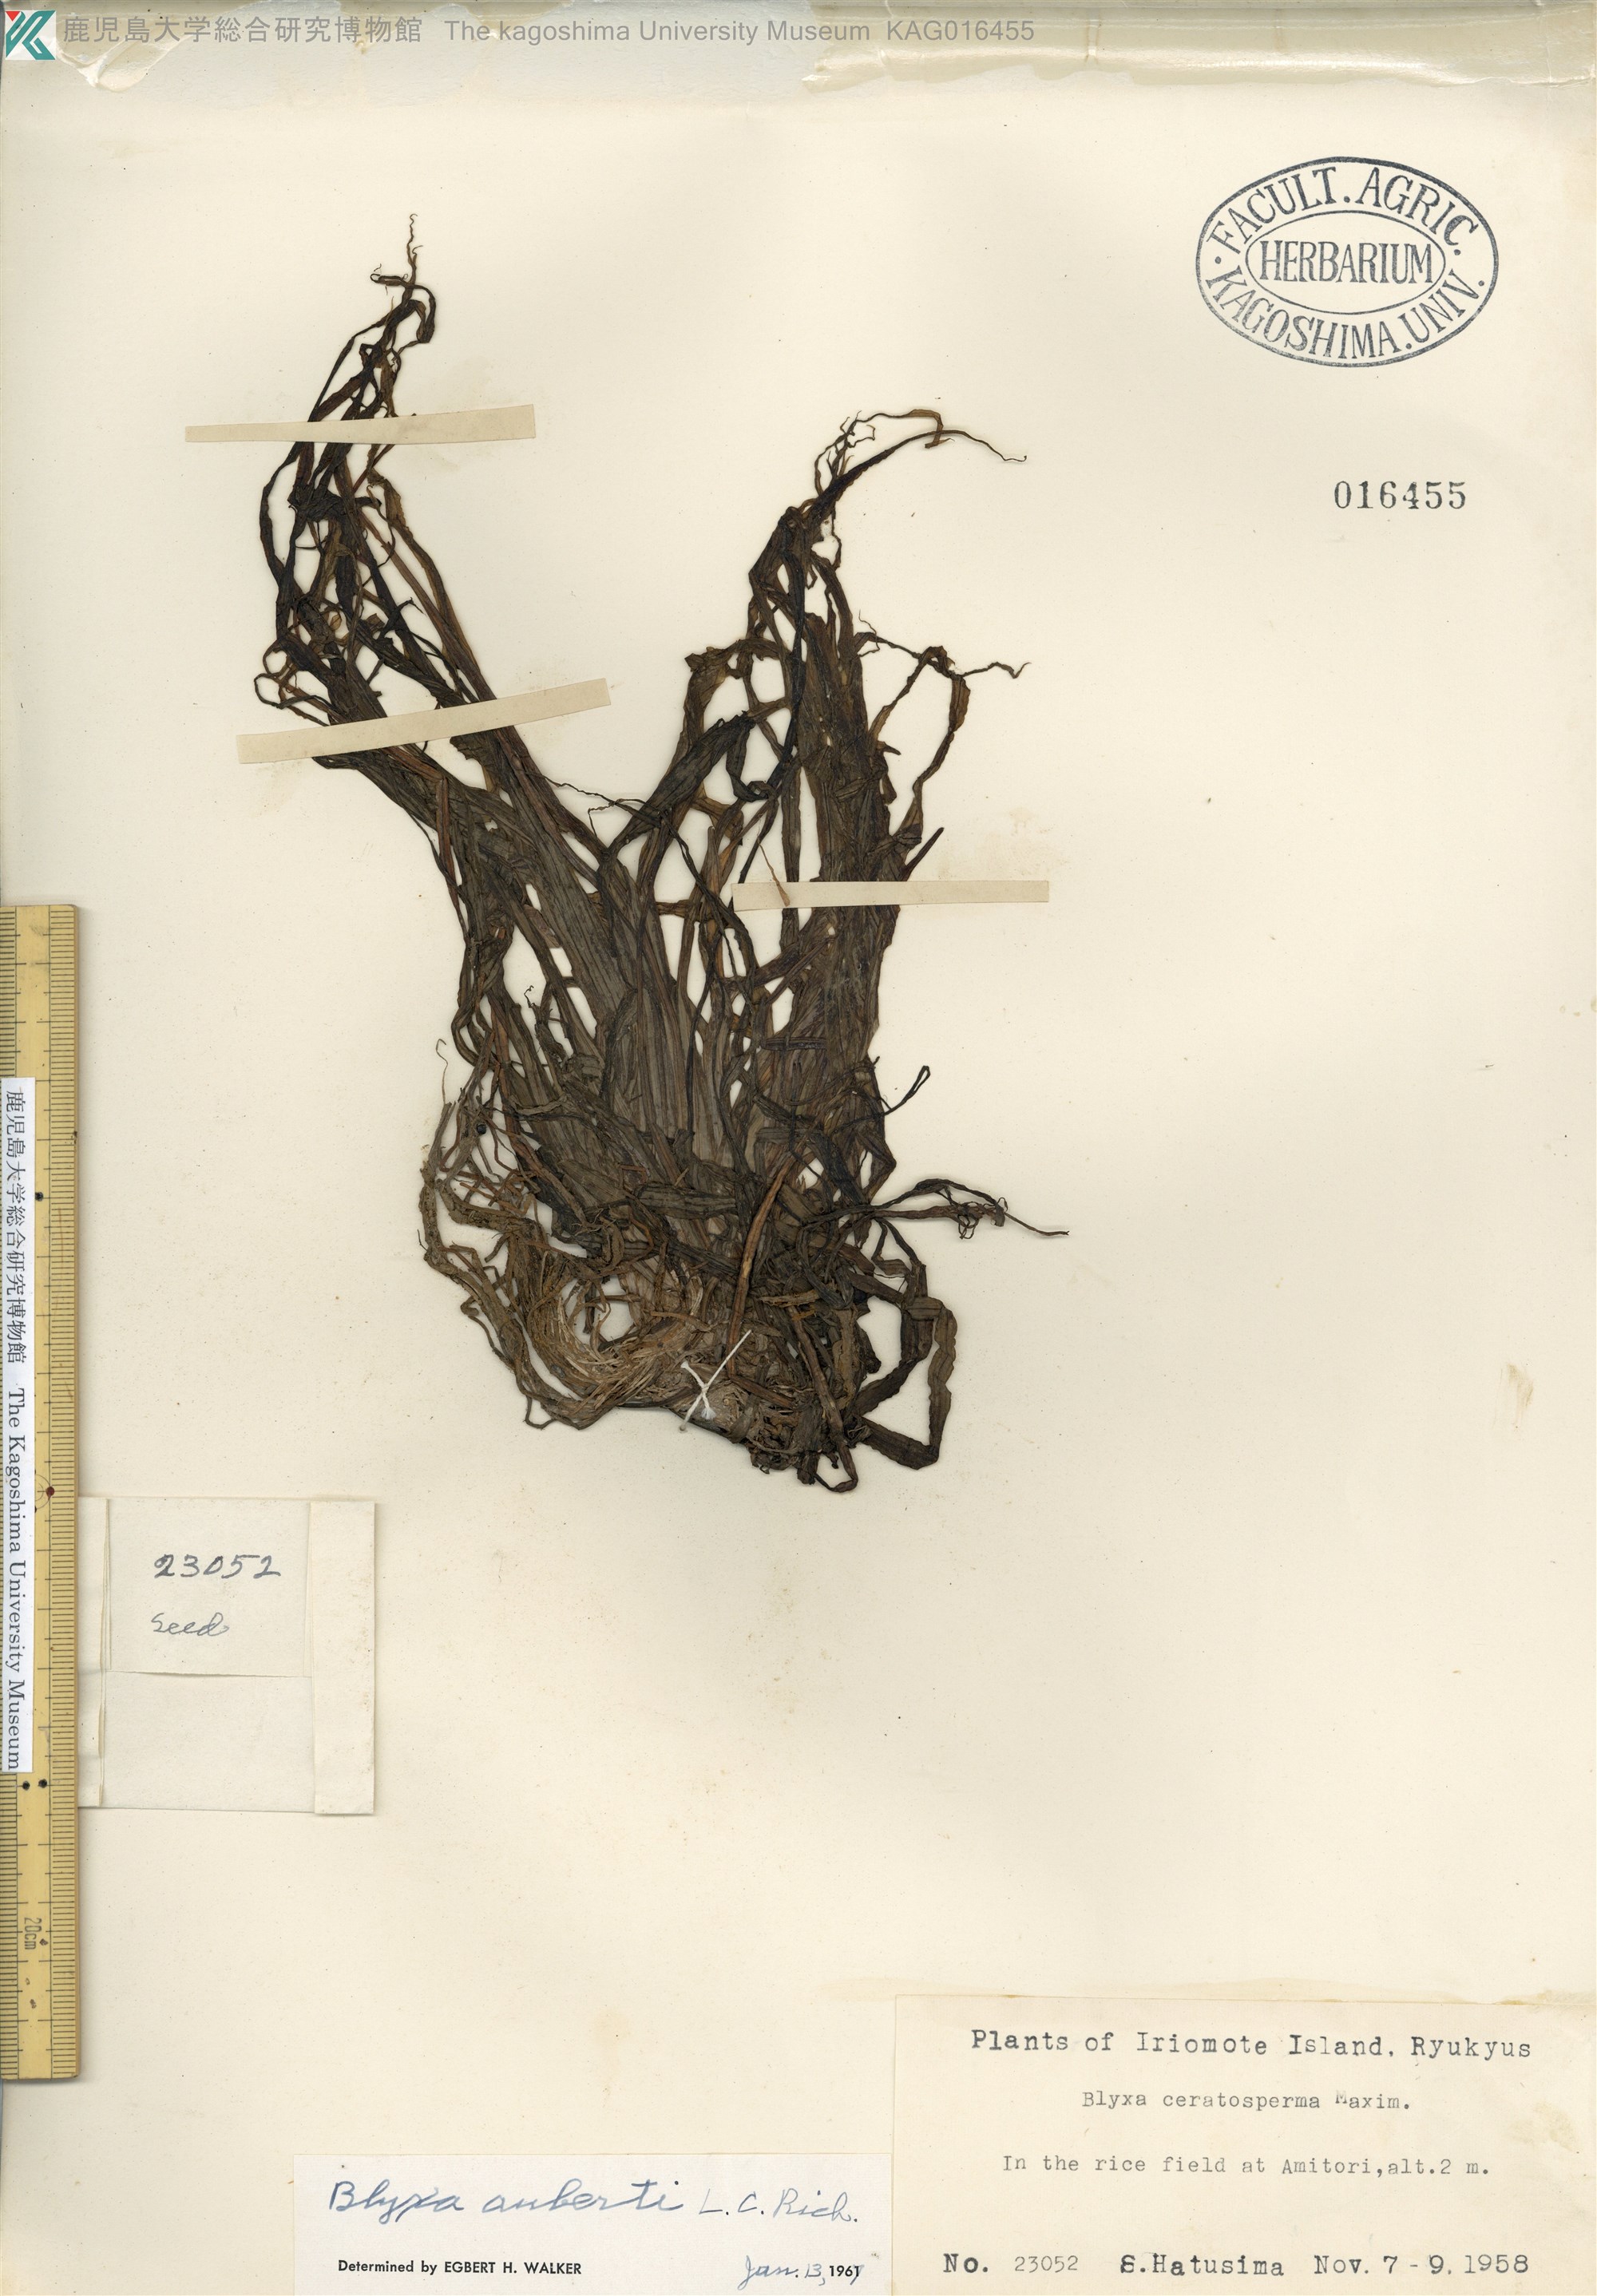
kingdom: Plantae
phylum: Tracheophyta
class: Liliopsida
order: Alismatales
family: Hydrocharitaceae
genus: Blyxa
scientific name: Blyxa echinosperma
